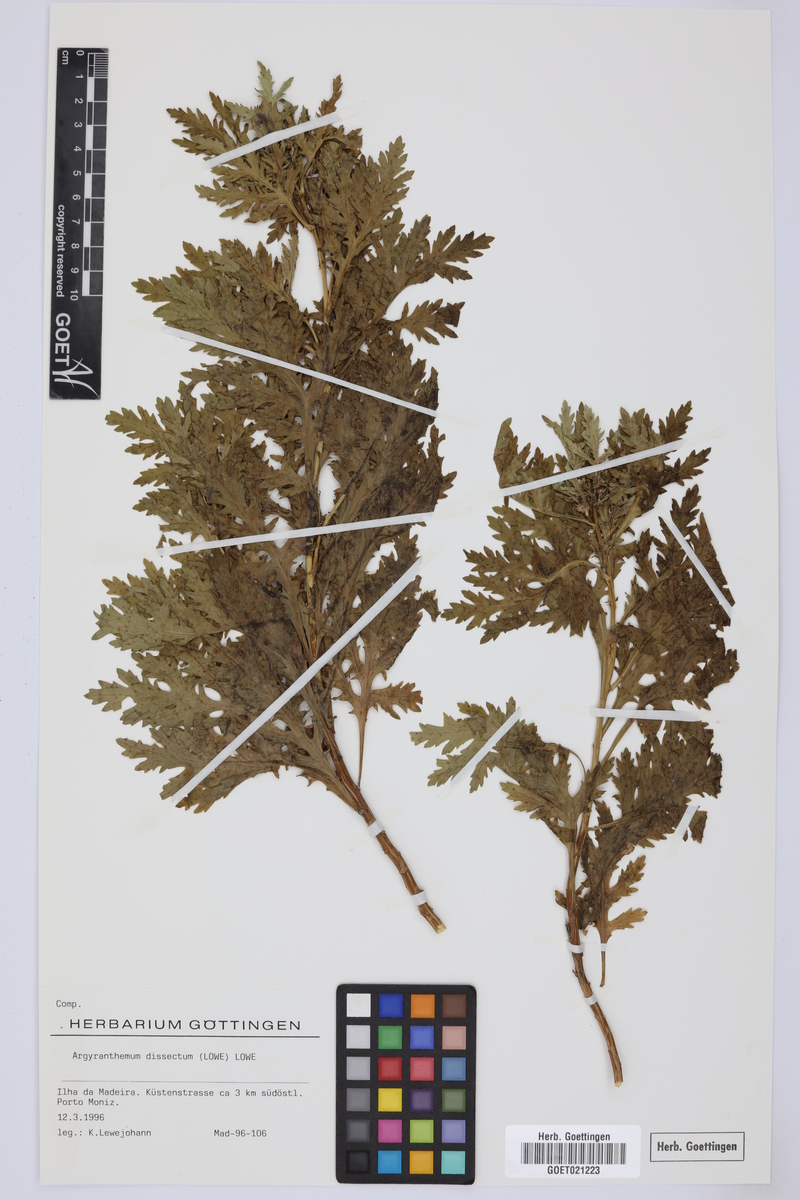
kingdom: Plantae
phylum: Tracheophyta
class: Magnoliopsida
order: Asterales
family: Asteraceae
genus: Argyranthemum
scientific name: Argyranthemum dissectum
